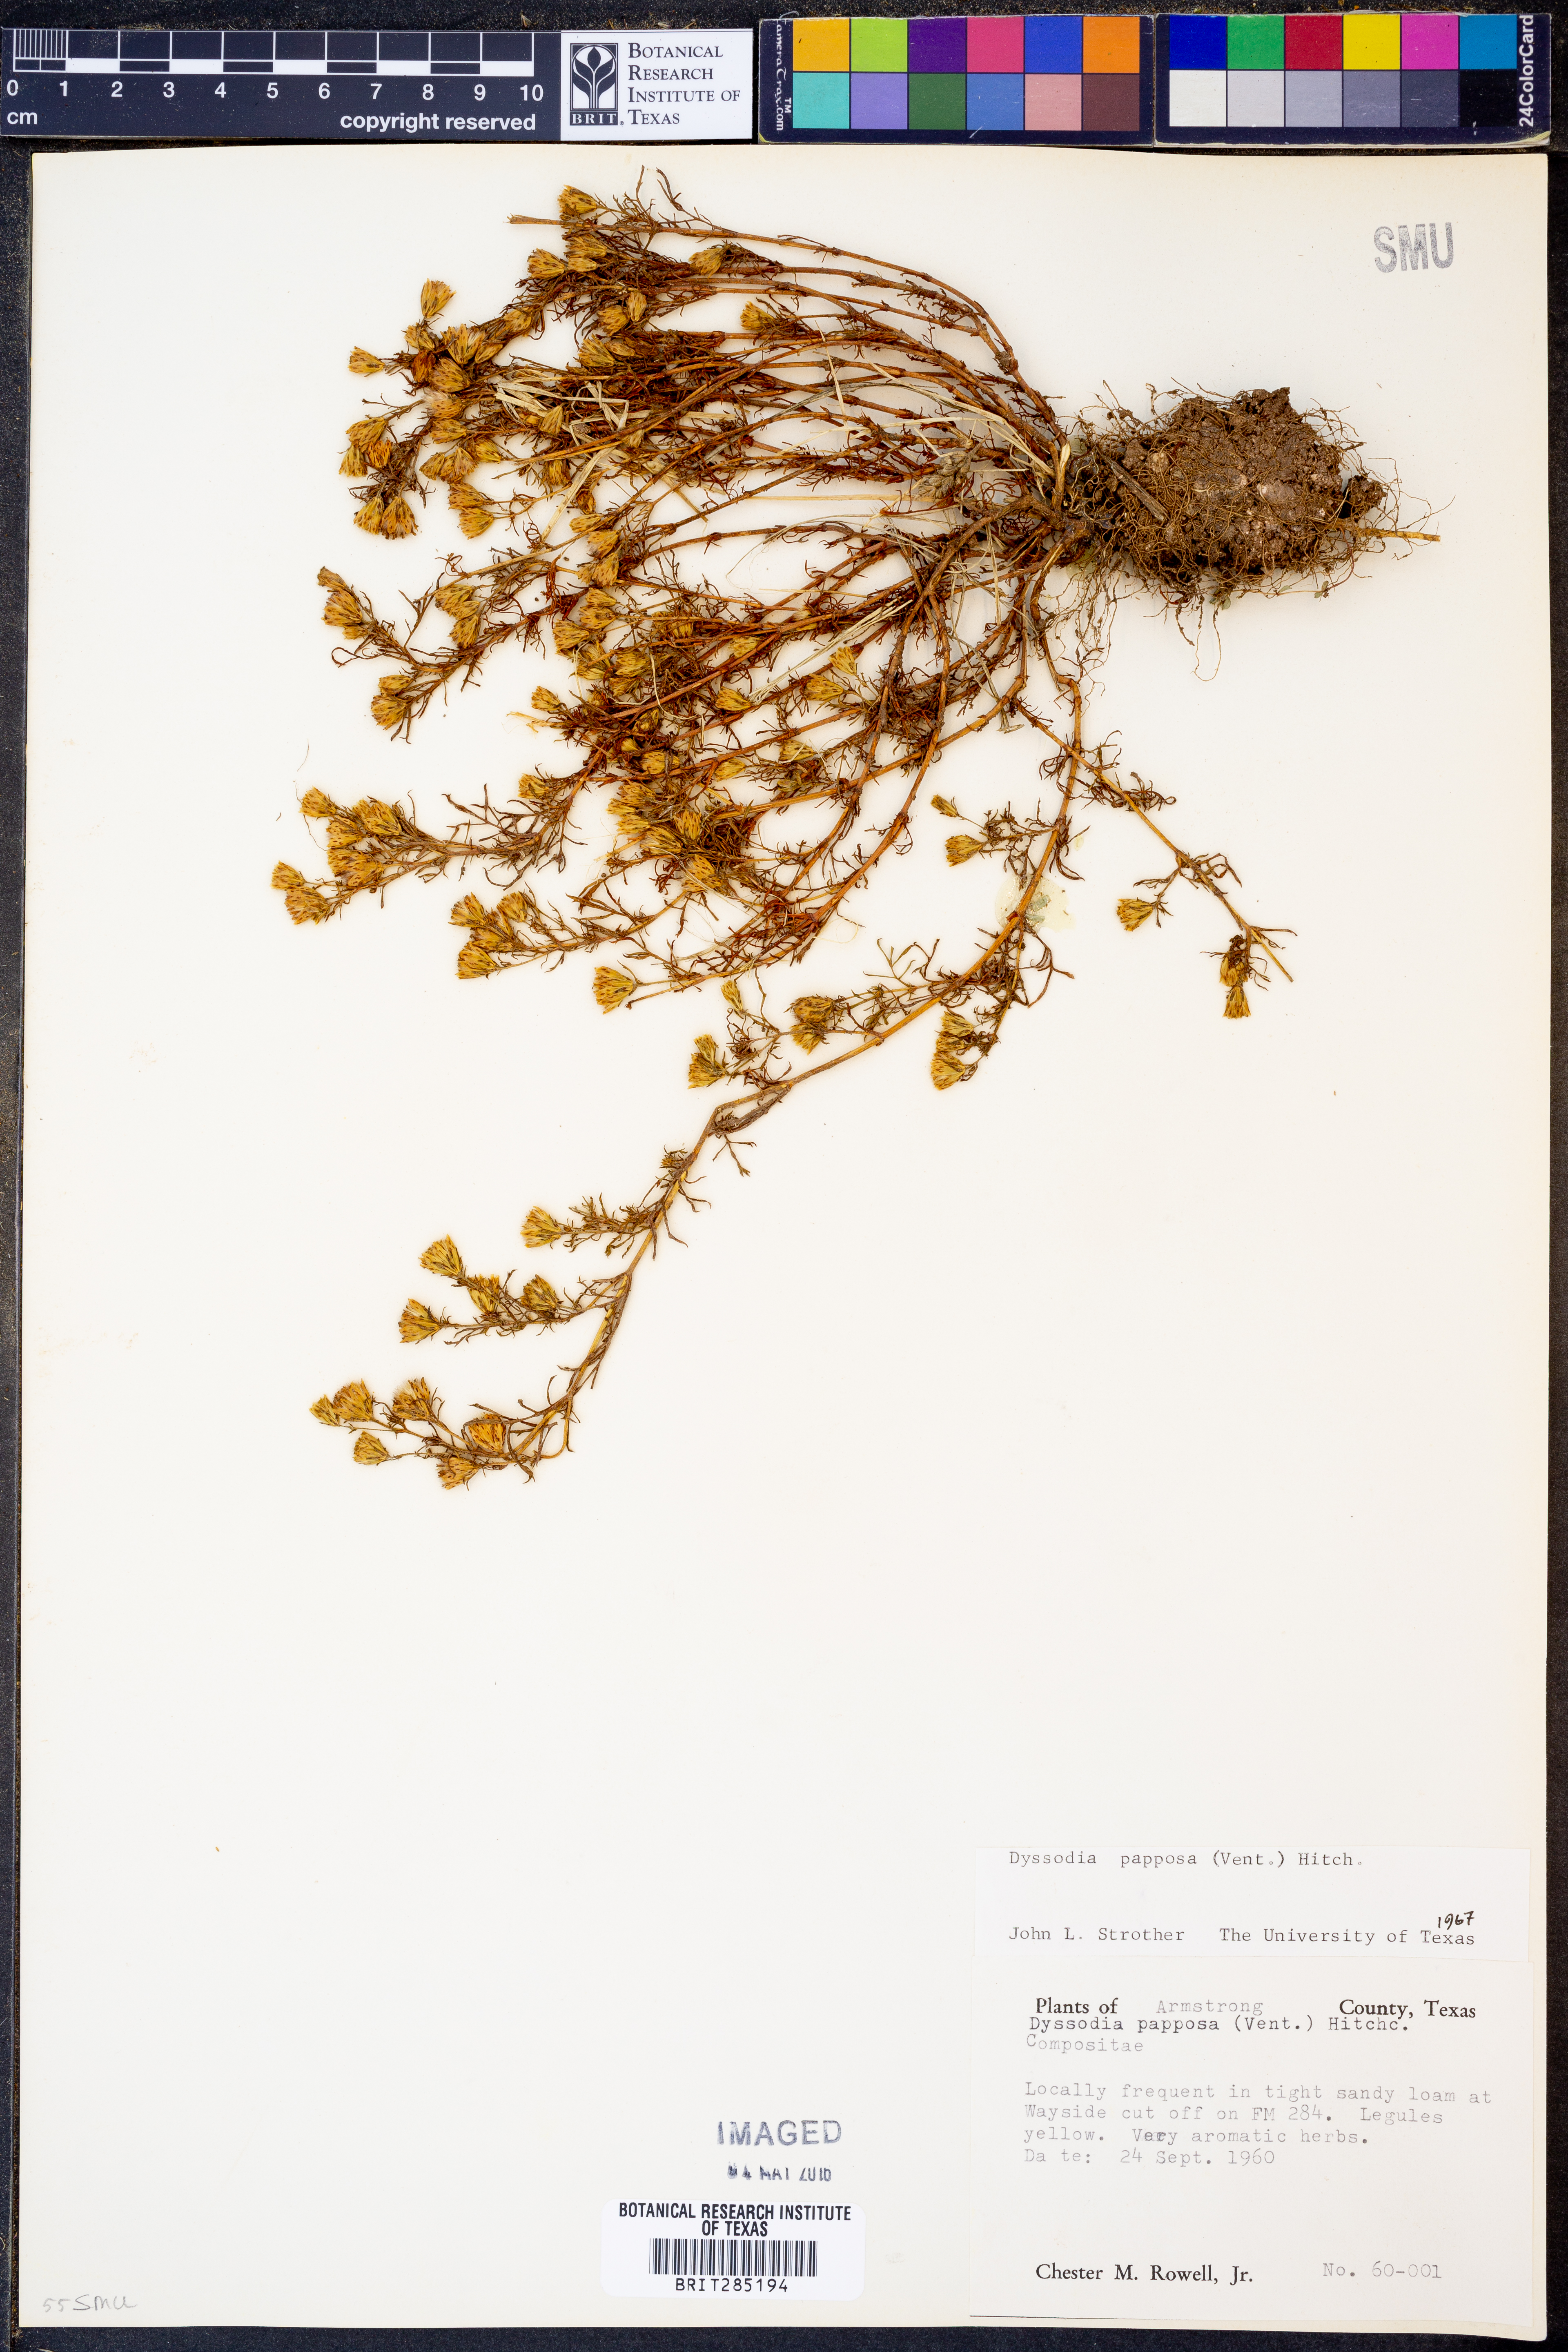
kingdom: Plantae
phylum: Tracheophyta
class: Magnoliopsida
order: Asterales
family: Asteraceae
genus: Dyssodia
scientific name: Dyssodia papposa
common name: Dogweed
